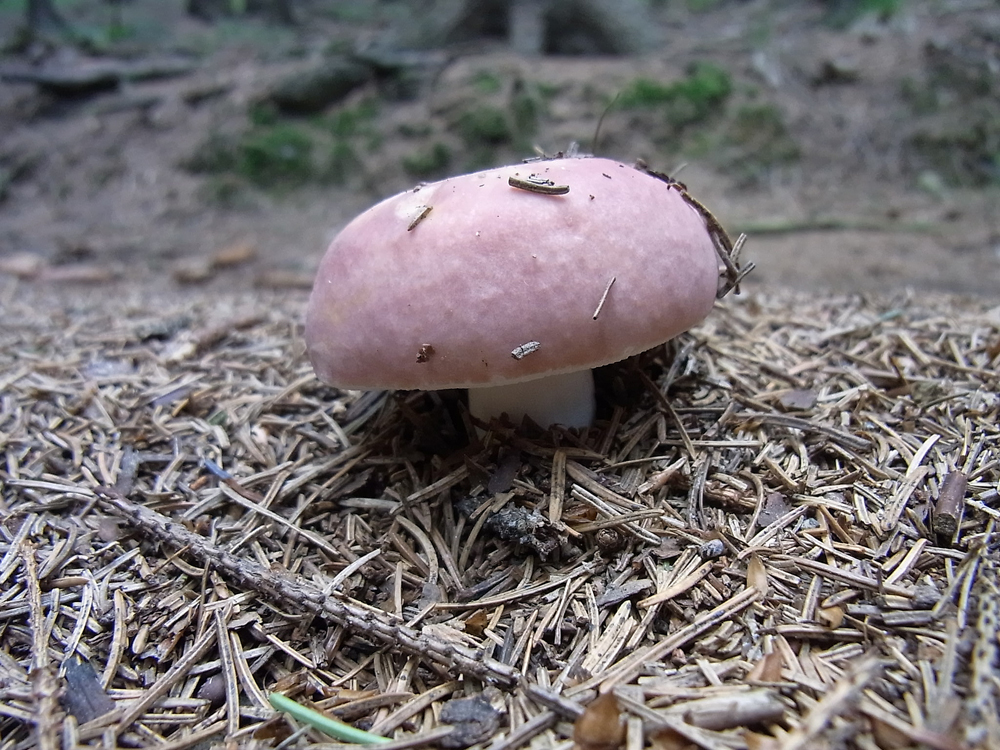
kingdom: Fungi
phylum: Basidiomycota
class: Agaricomycetes
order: Russulales
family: Russulaceae
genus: Russula
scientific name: Russula vesca
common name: Bare-toothed russula
